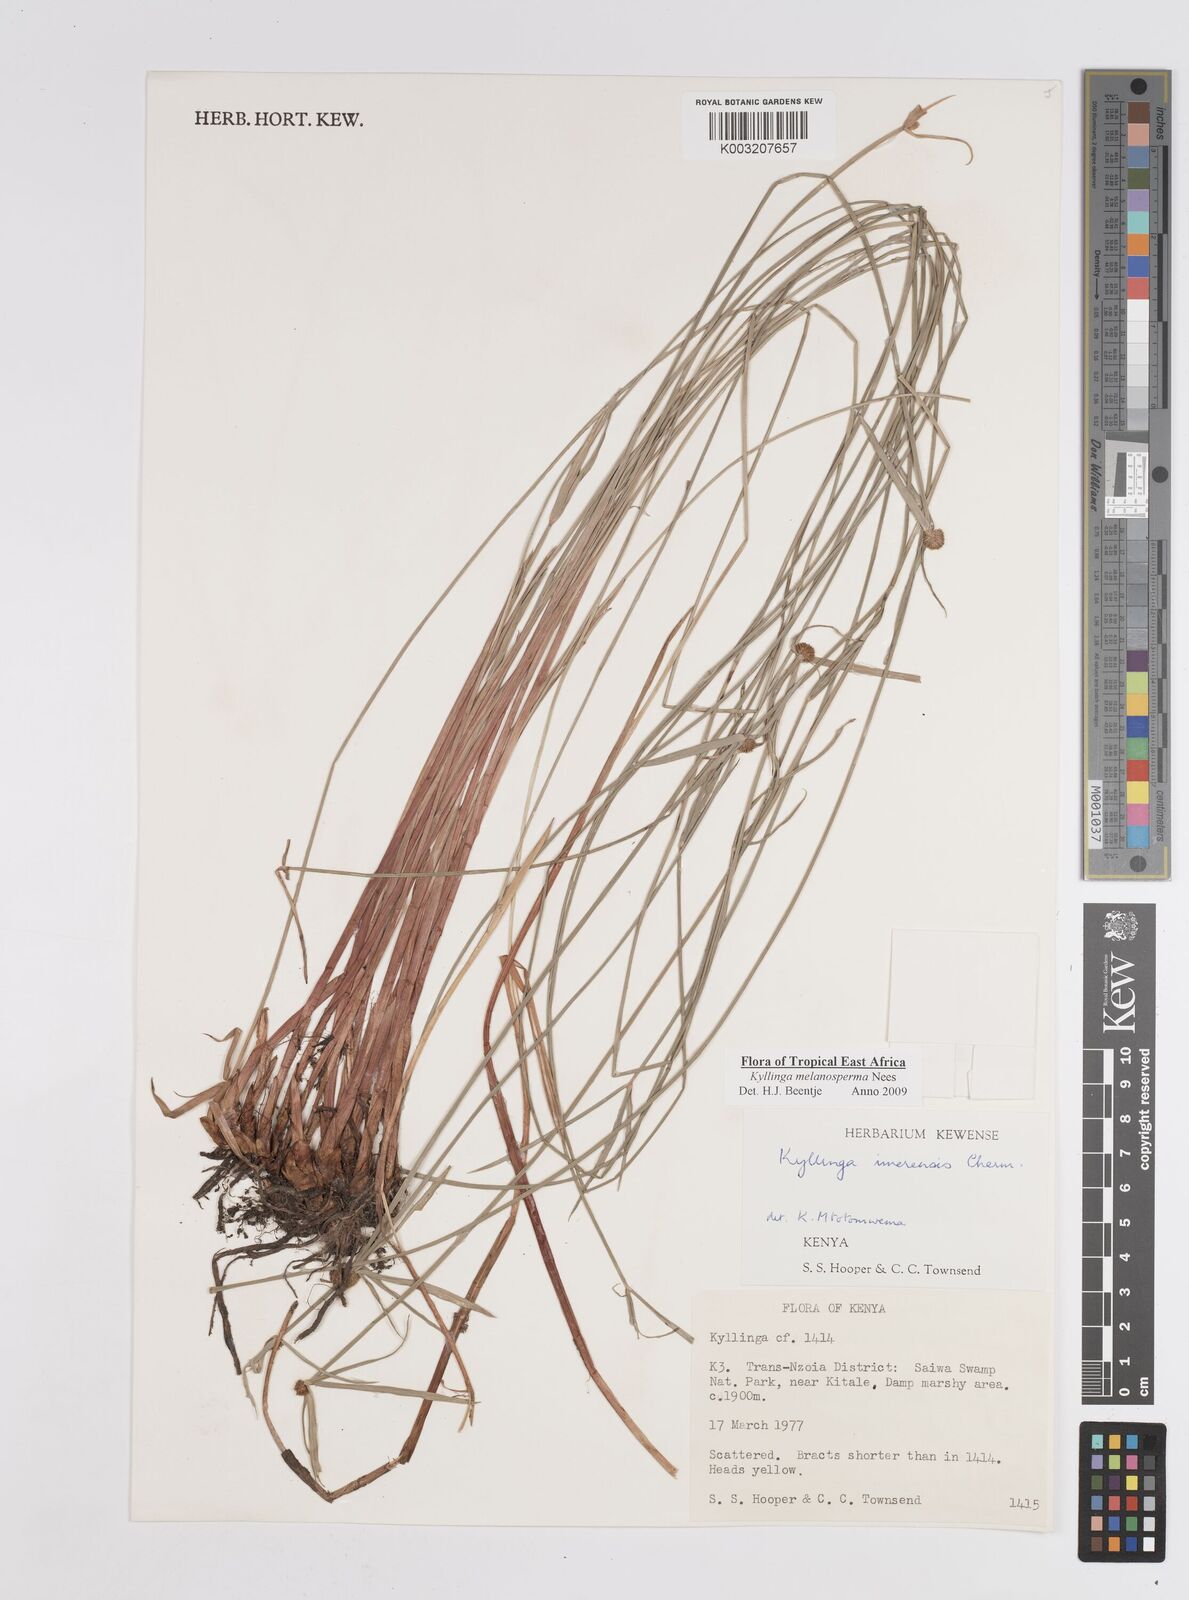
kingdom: Plantae
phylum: Tracheophyta
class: Liliopsida
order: Poales
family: Cyperaceae
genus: Cyperus
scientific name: Cyperus melanospermus
